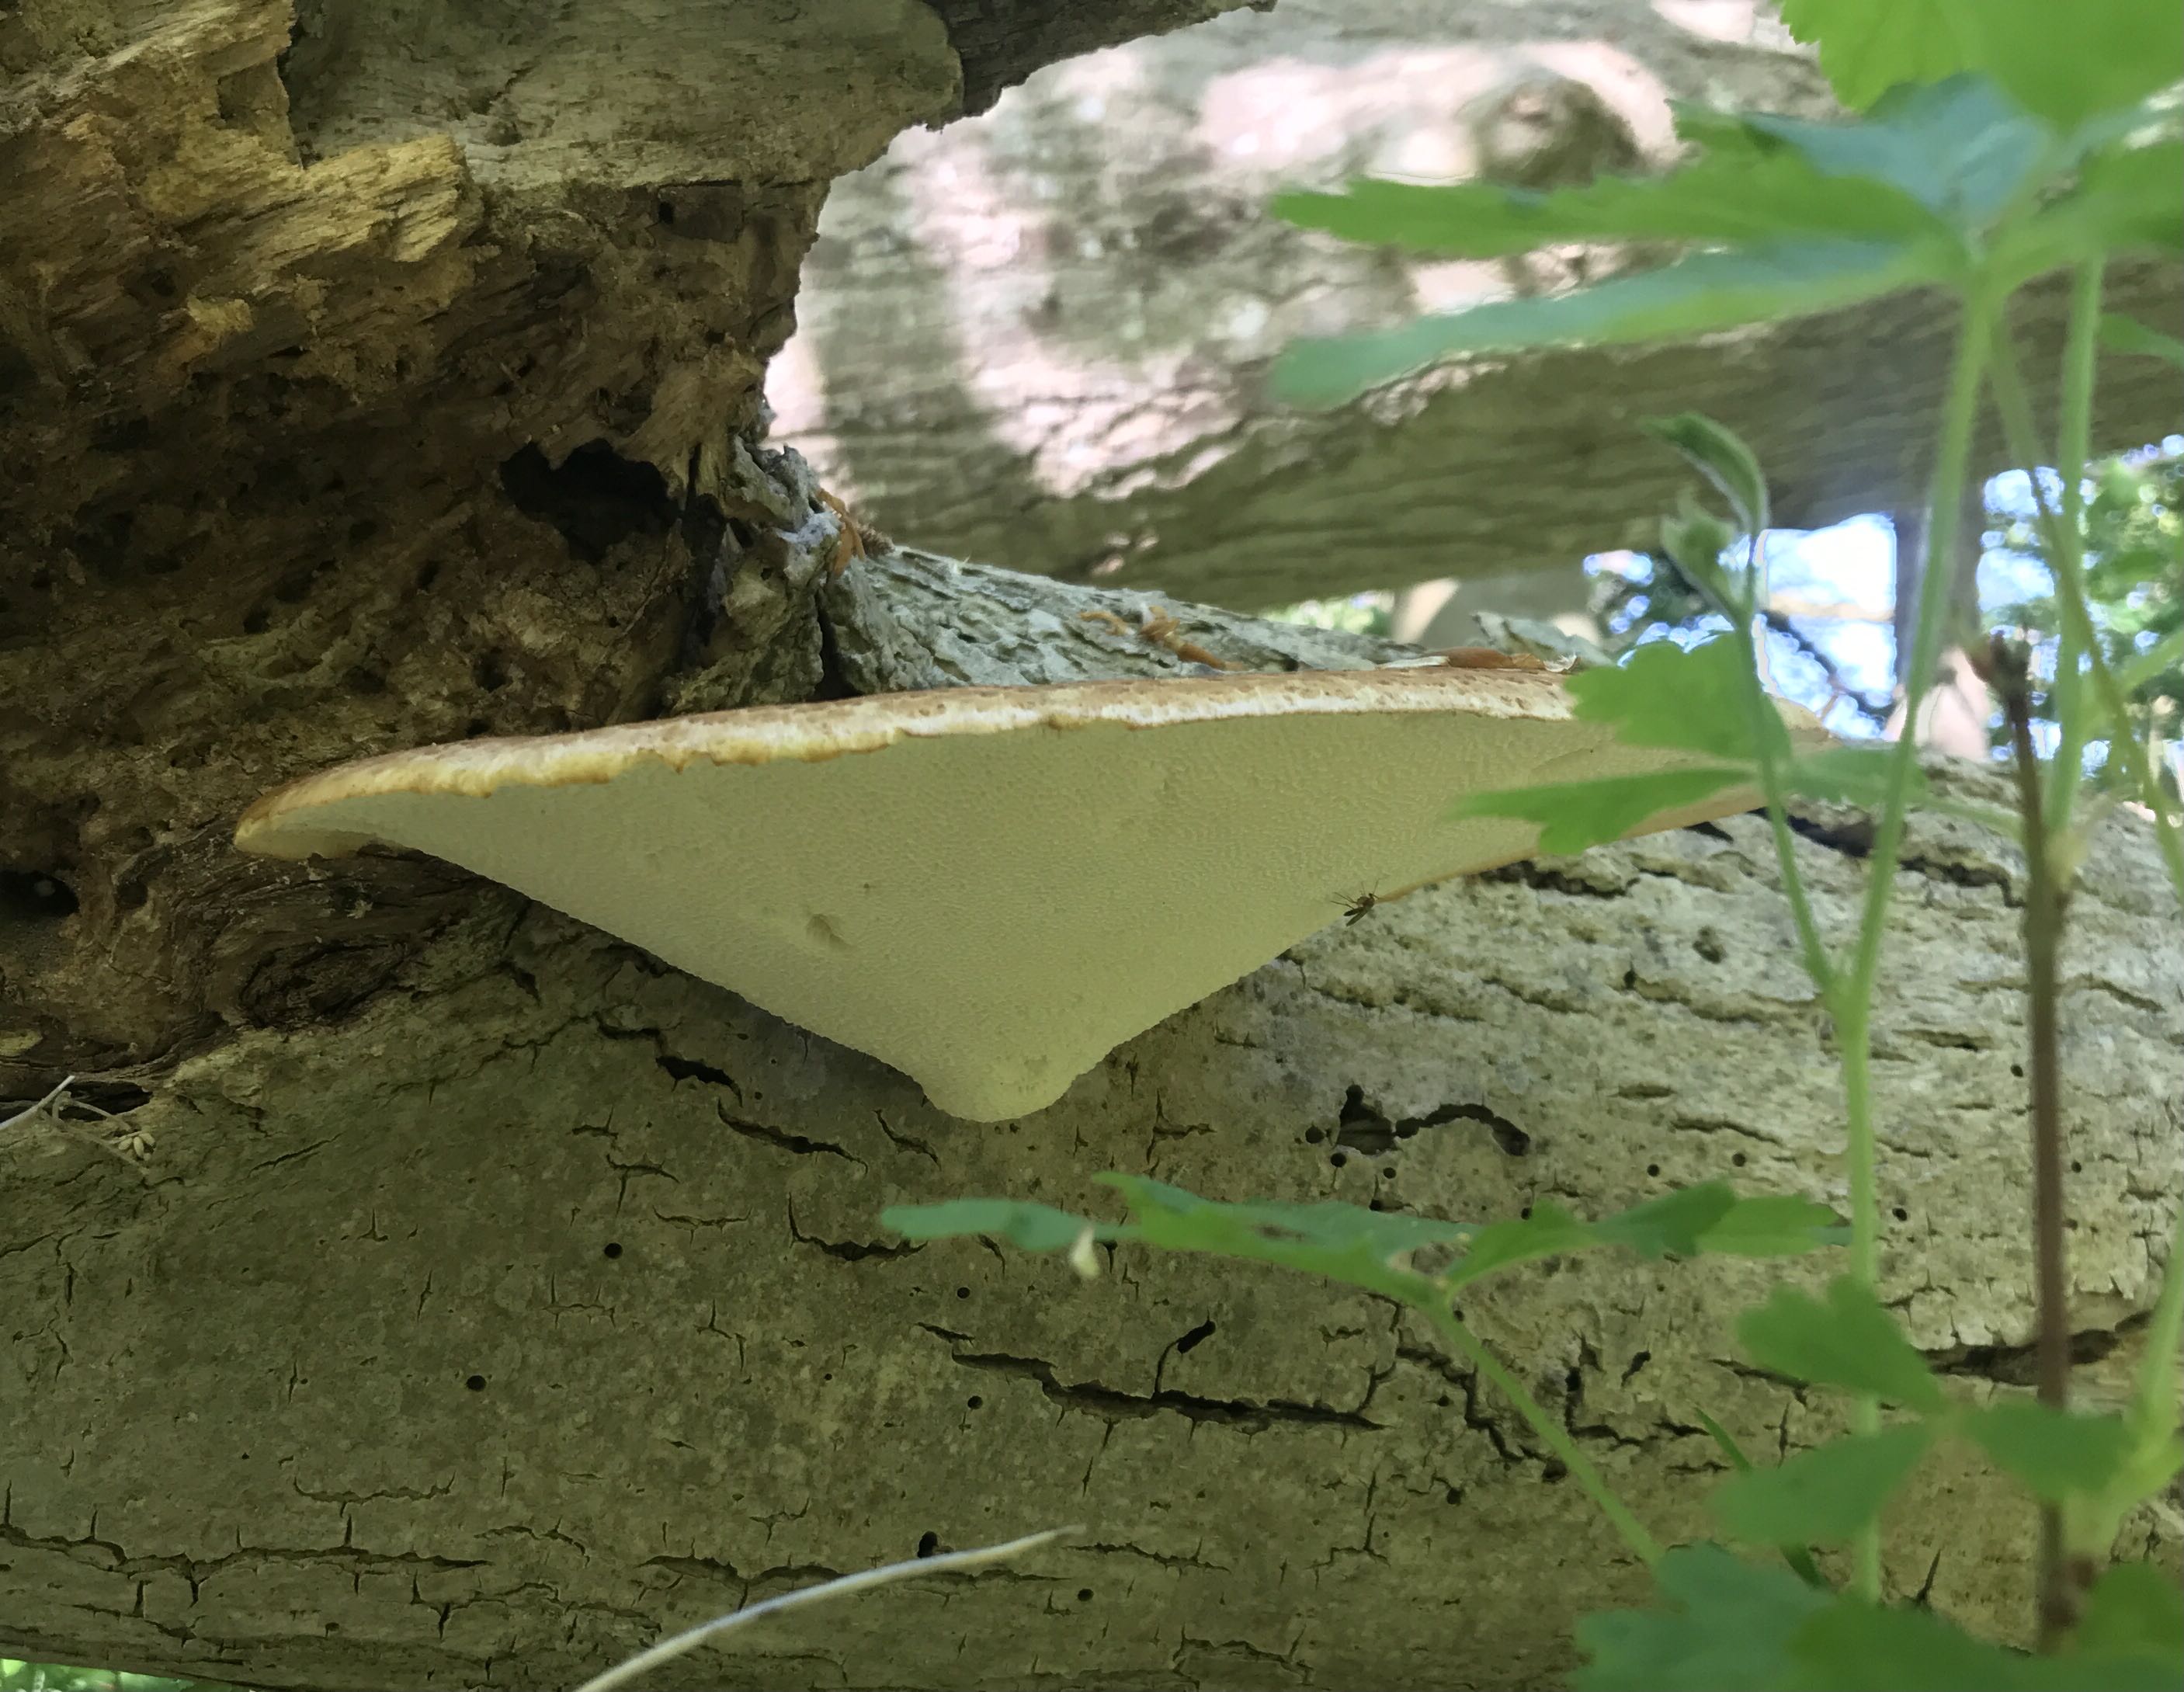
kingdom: Fungi
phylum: Basidiomycota
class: Agaricomycetes
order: Polyporales
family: Polyporaceae
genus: Cerioporus
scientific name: Cerioporus squamosus
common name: skællet stilkporesvamp
